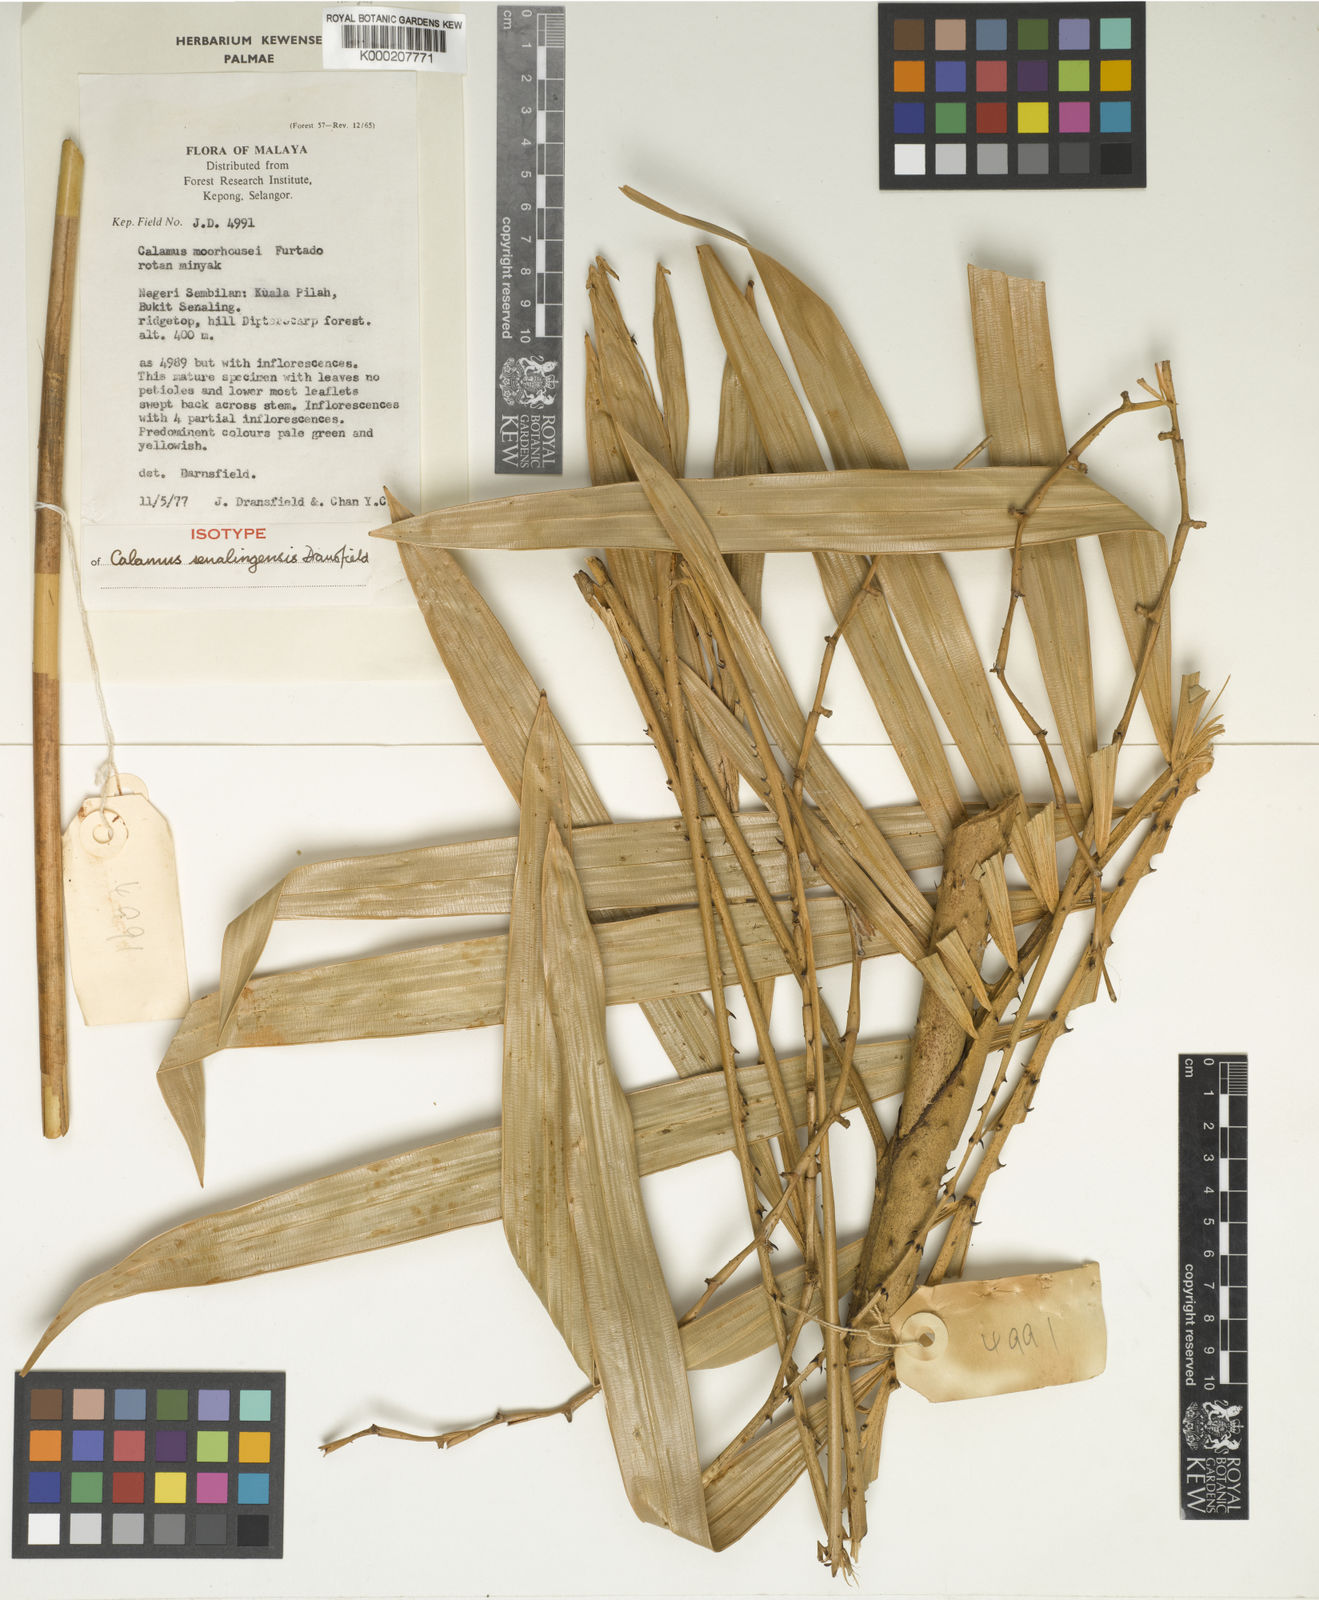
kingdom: Plantae
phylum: Tracheophyta
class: Liliopsida
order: Arecales
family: Arecaceae
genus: Calamus
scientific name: Calamus senalingensis
